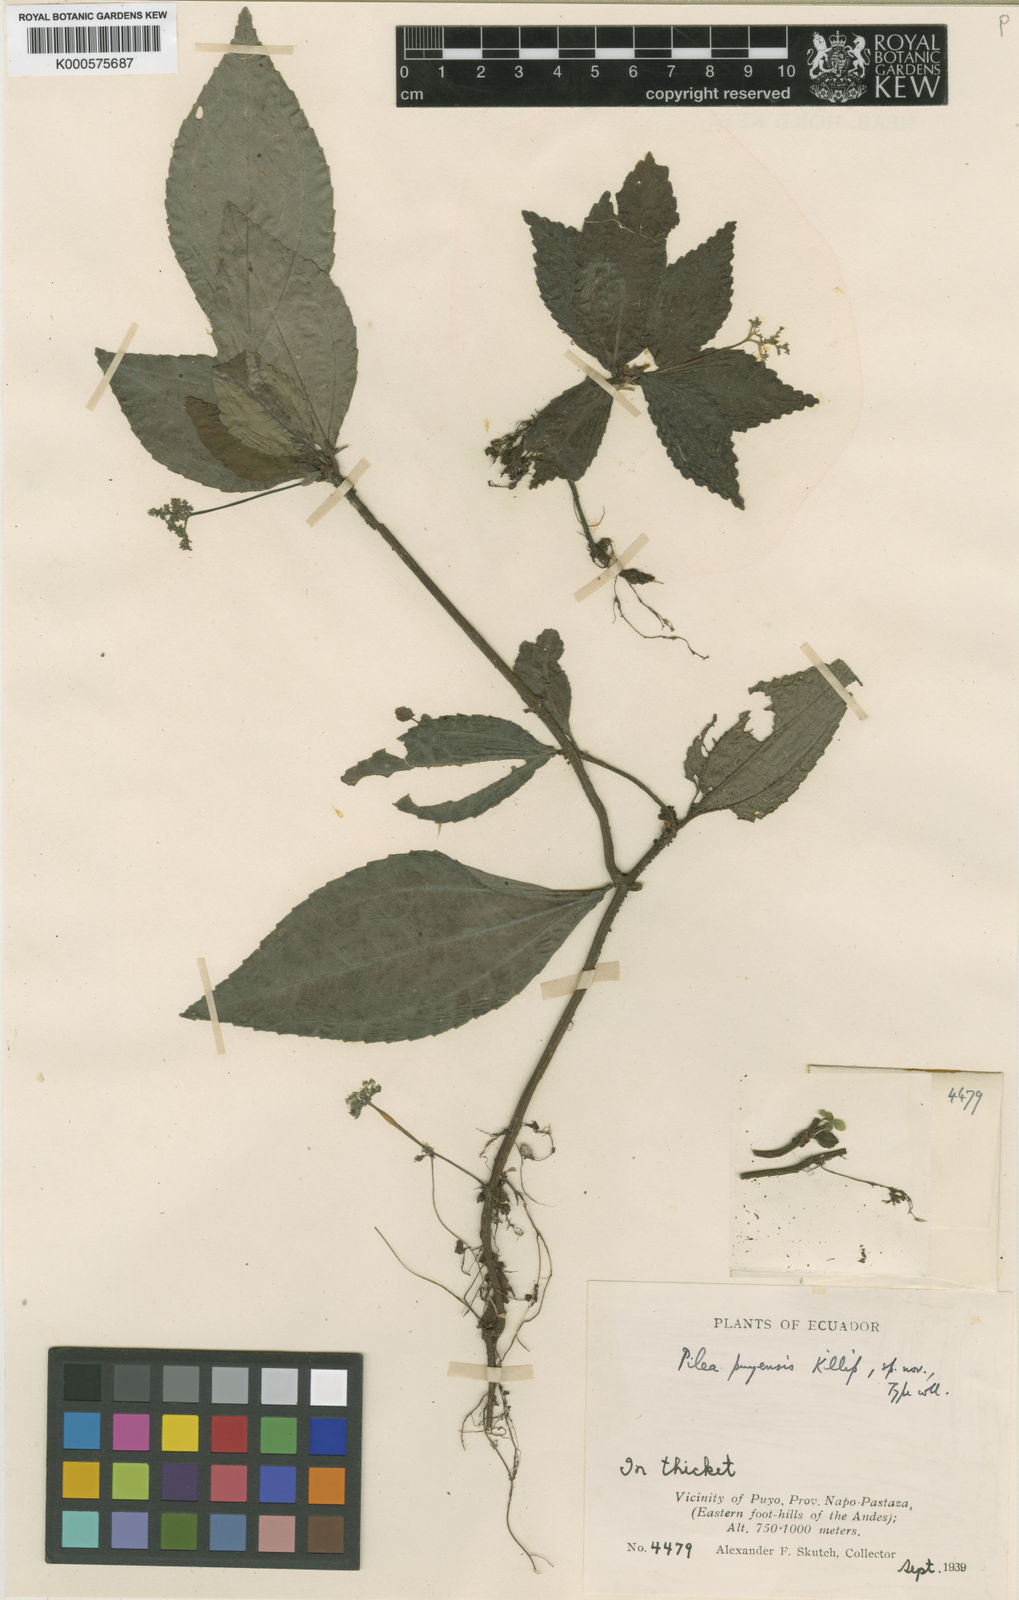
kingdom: Plantae
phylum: Tracheophyta
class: Magnoliopsida
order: Rosales
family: Urticaceae
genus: Pilea
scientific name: Pilea
